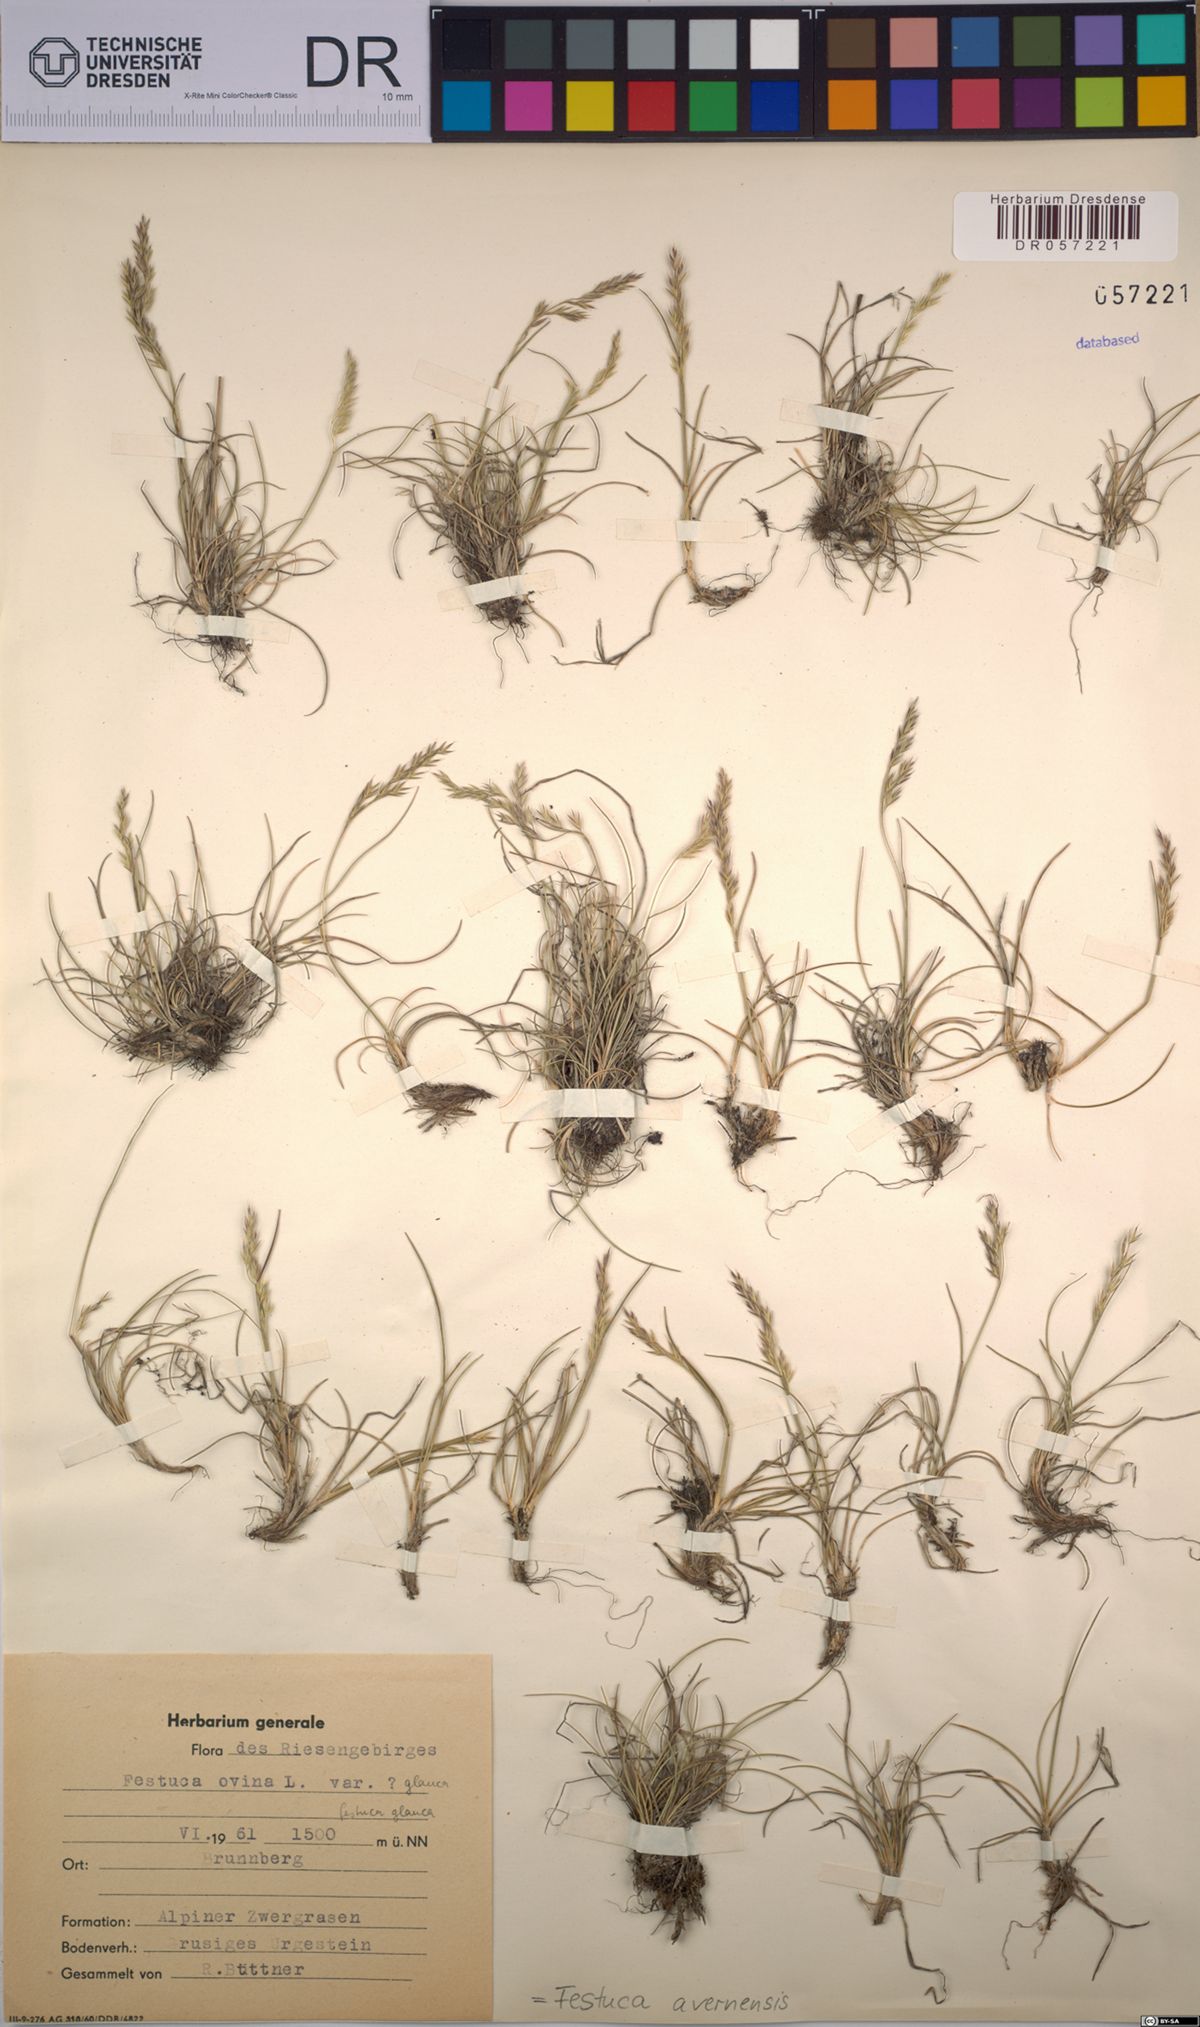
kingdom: Plantae
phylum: Tracheophyta
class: Liliopsida
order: Poales
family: Poaceae
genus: Festuca
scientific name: Festuca arvernensis
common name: Field fescue
